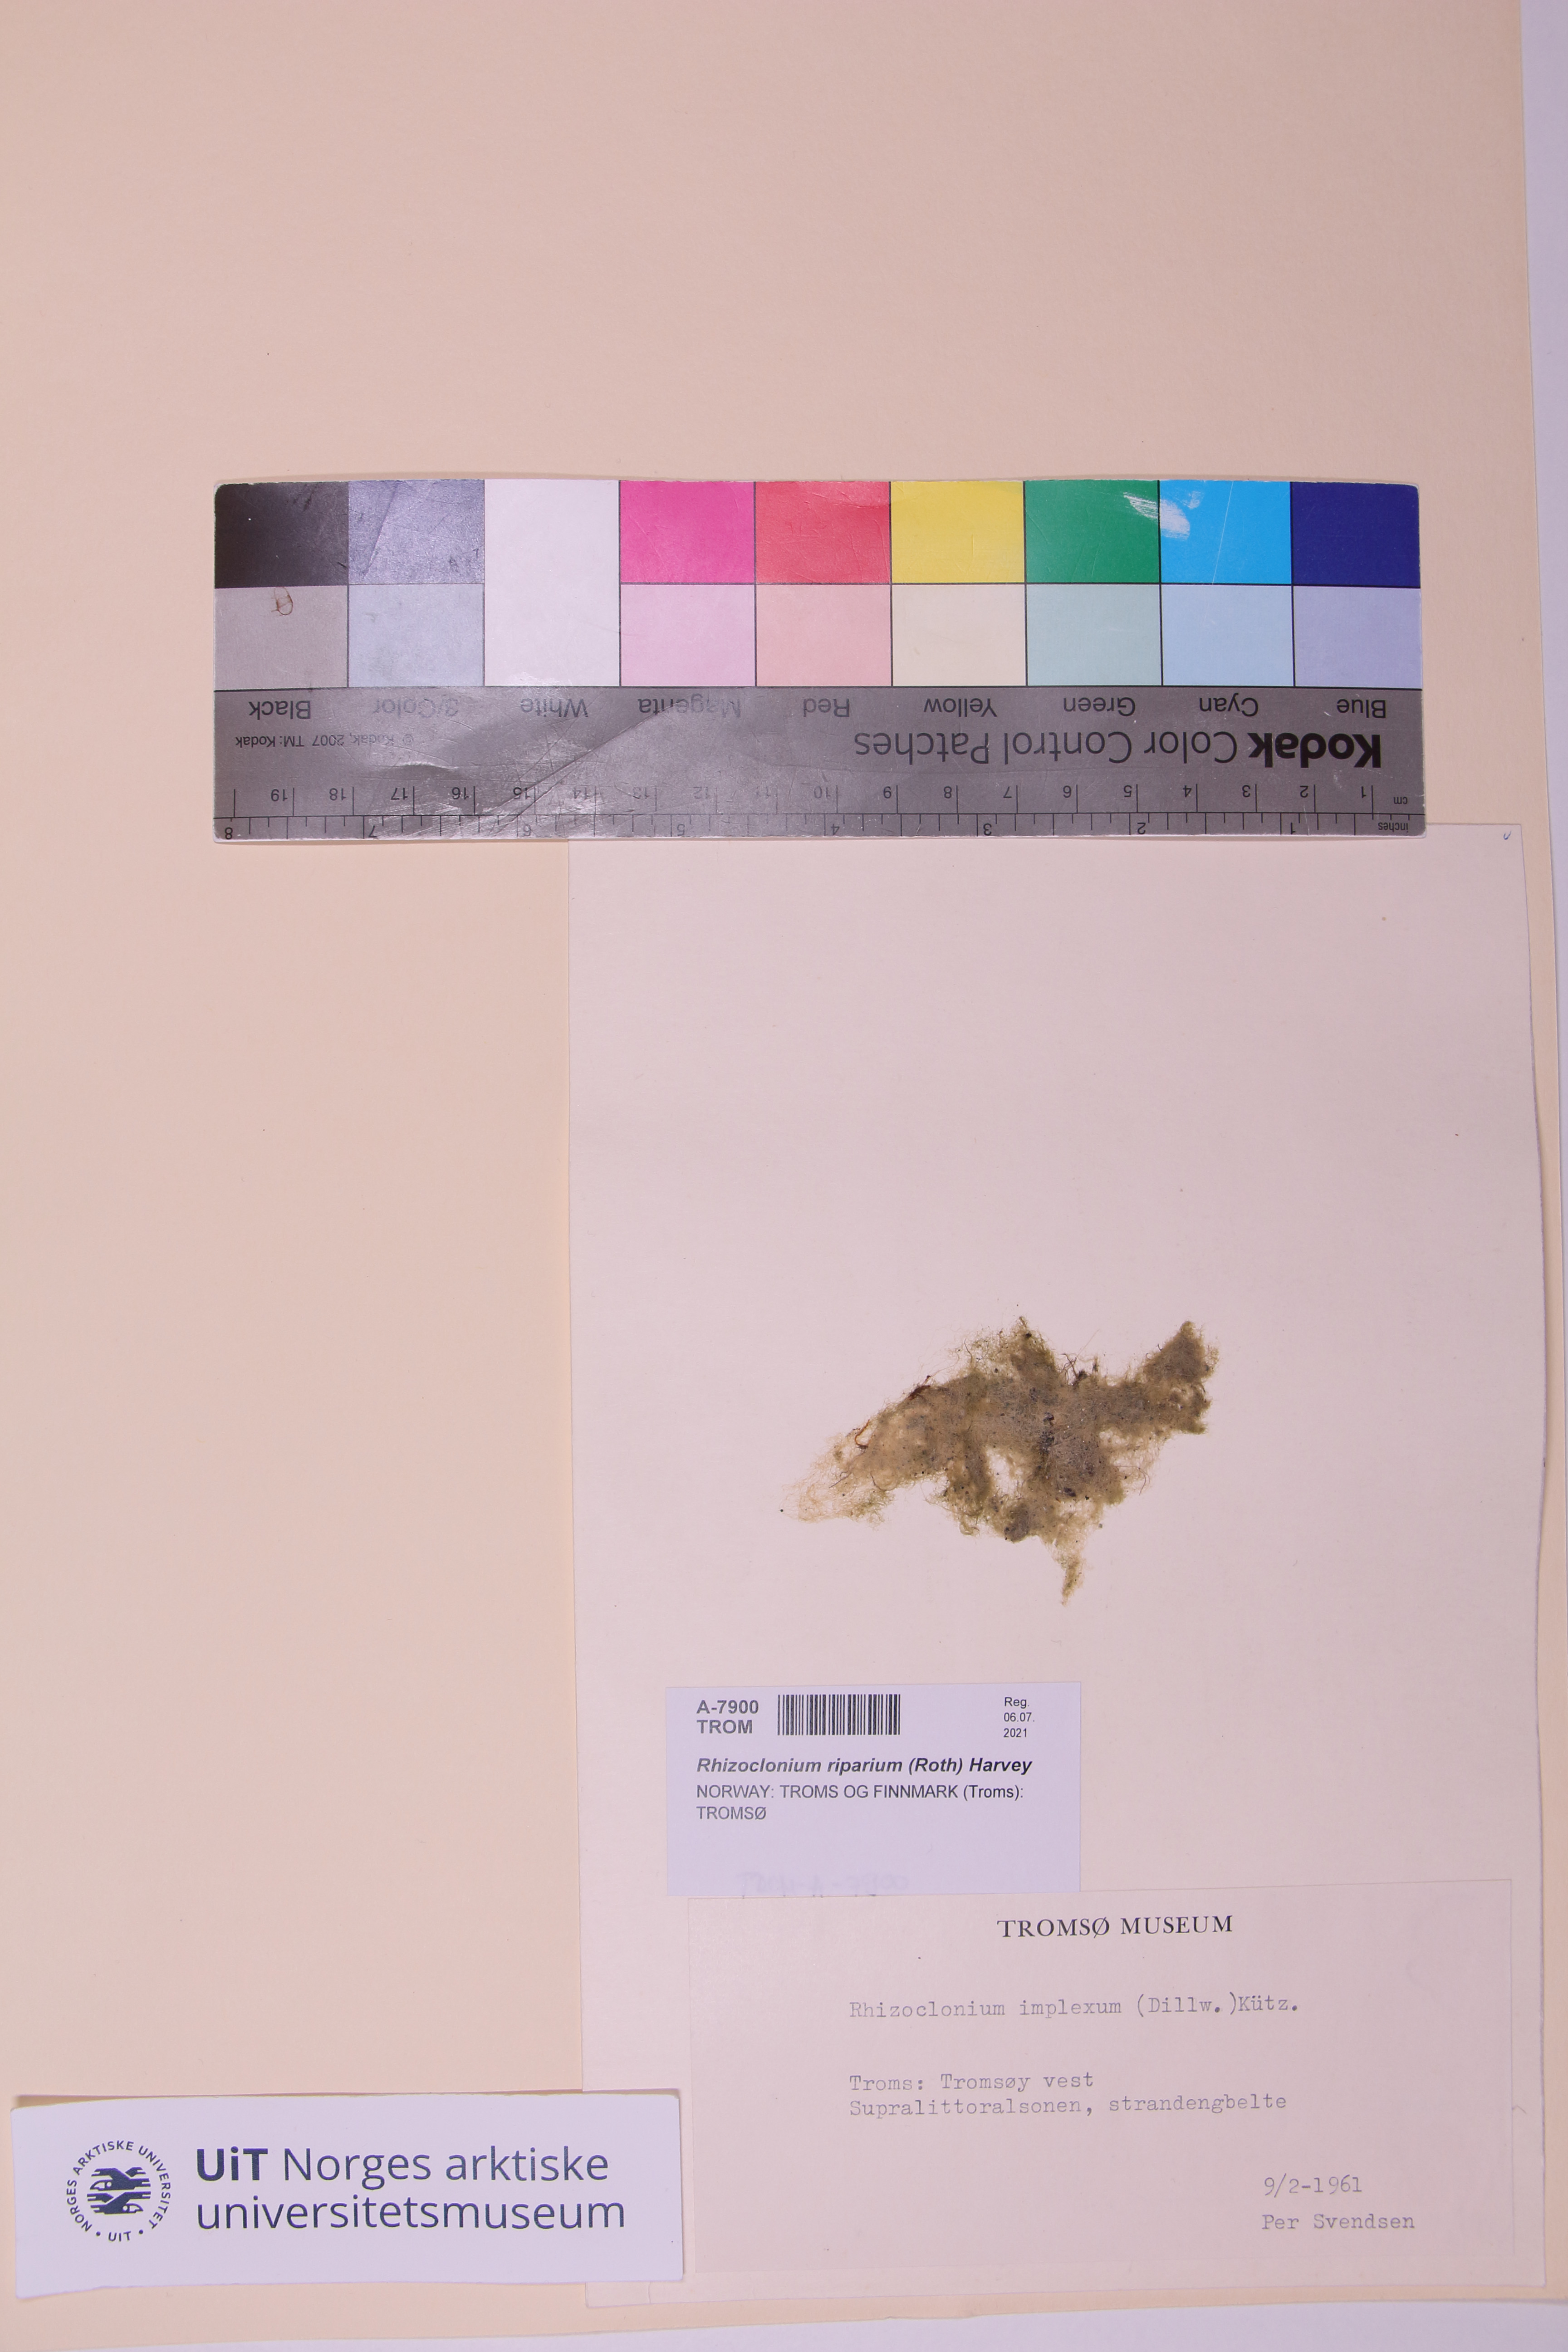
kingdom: Plantae
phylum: Chlorophyta
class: Ulvophyceae
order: Cladophorales
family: Cladophoraceae
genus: Rhizoclonium
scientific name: Rhizoclonium riparium
